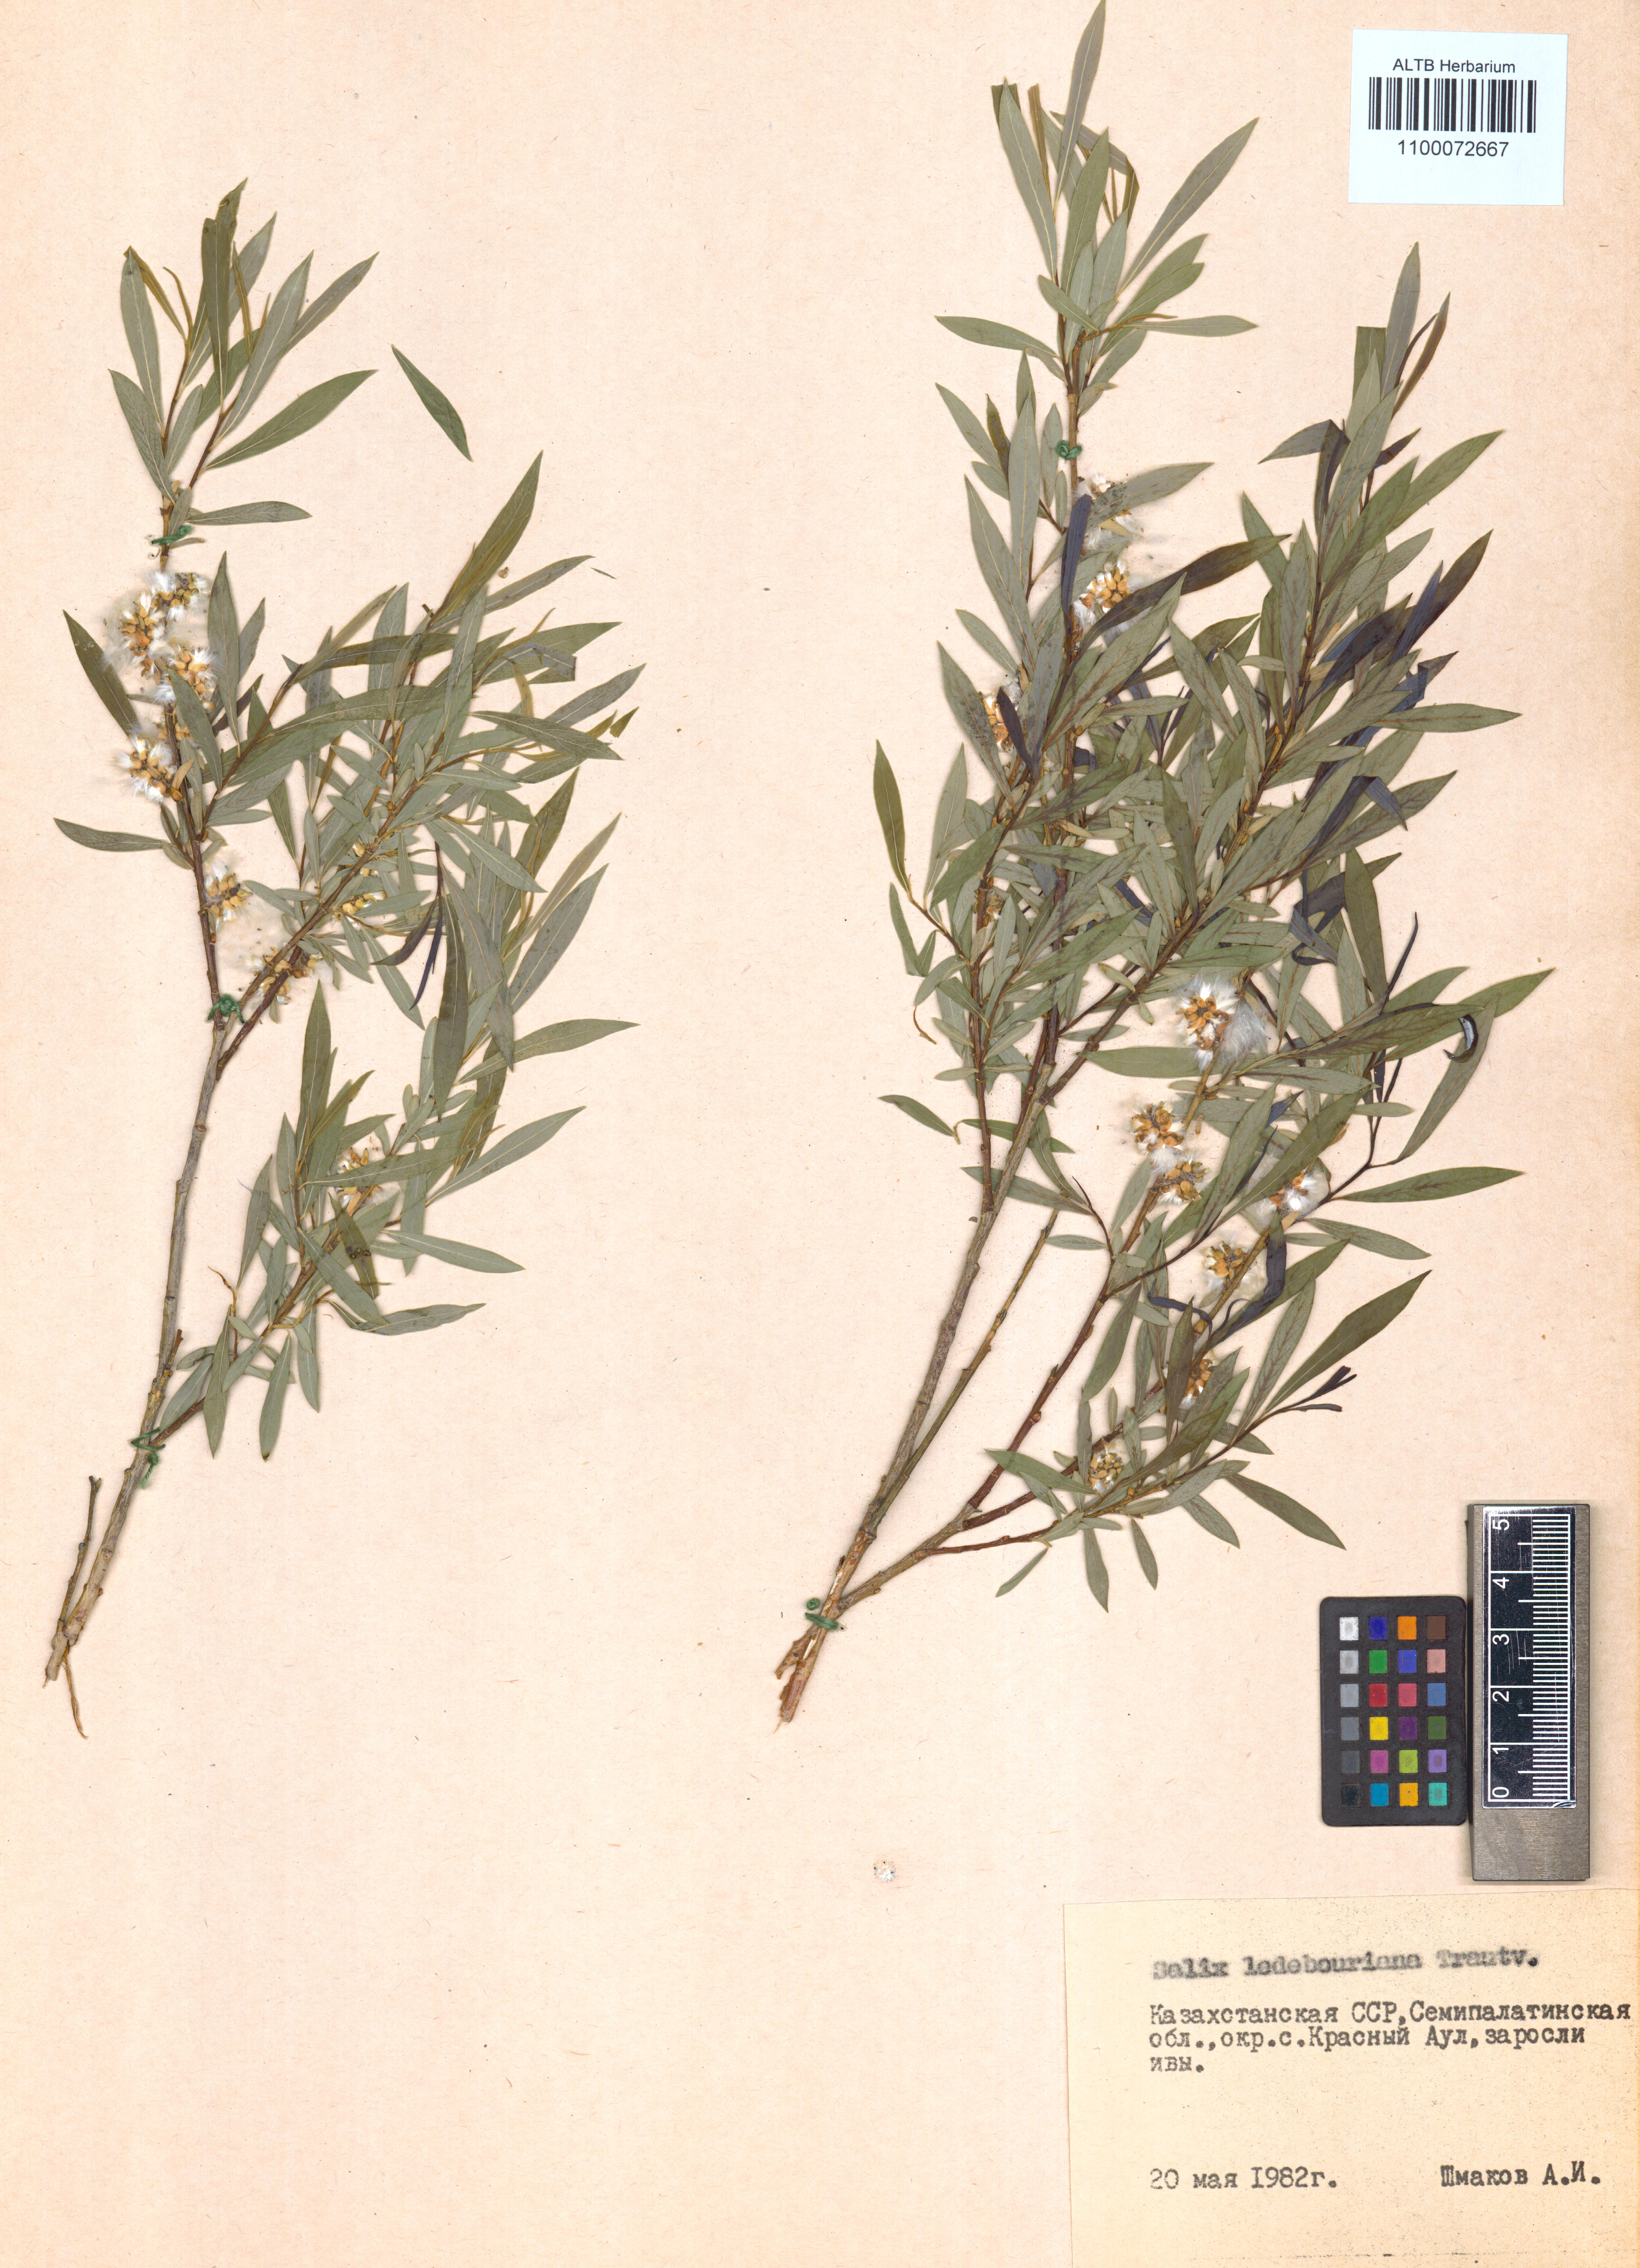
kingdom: Plantae
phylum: Tracheophyta
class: Magnoliopsida
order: Malpighiales
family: Salicaceae
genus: Salix
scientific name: Salix ledebouriana
